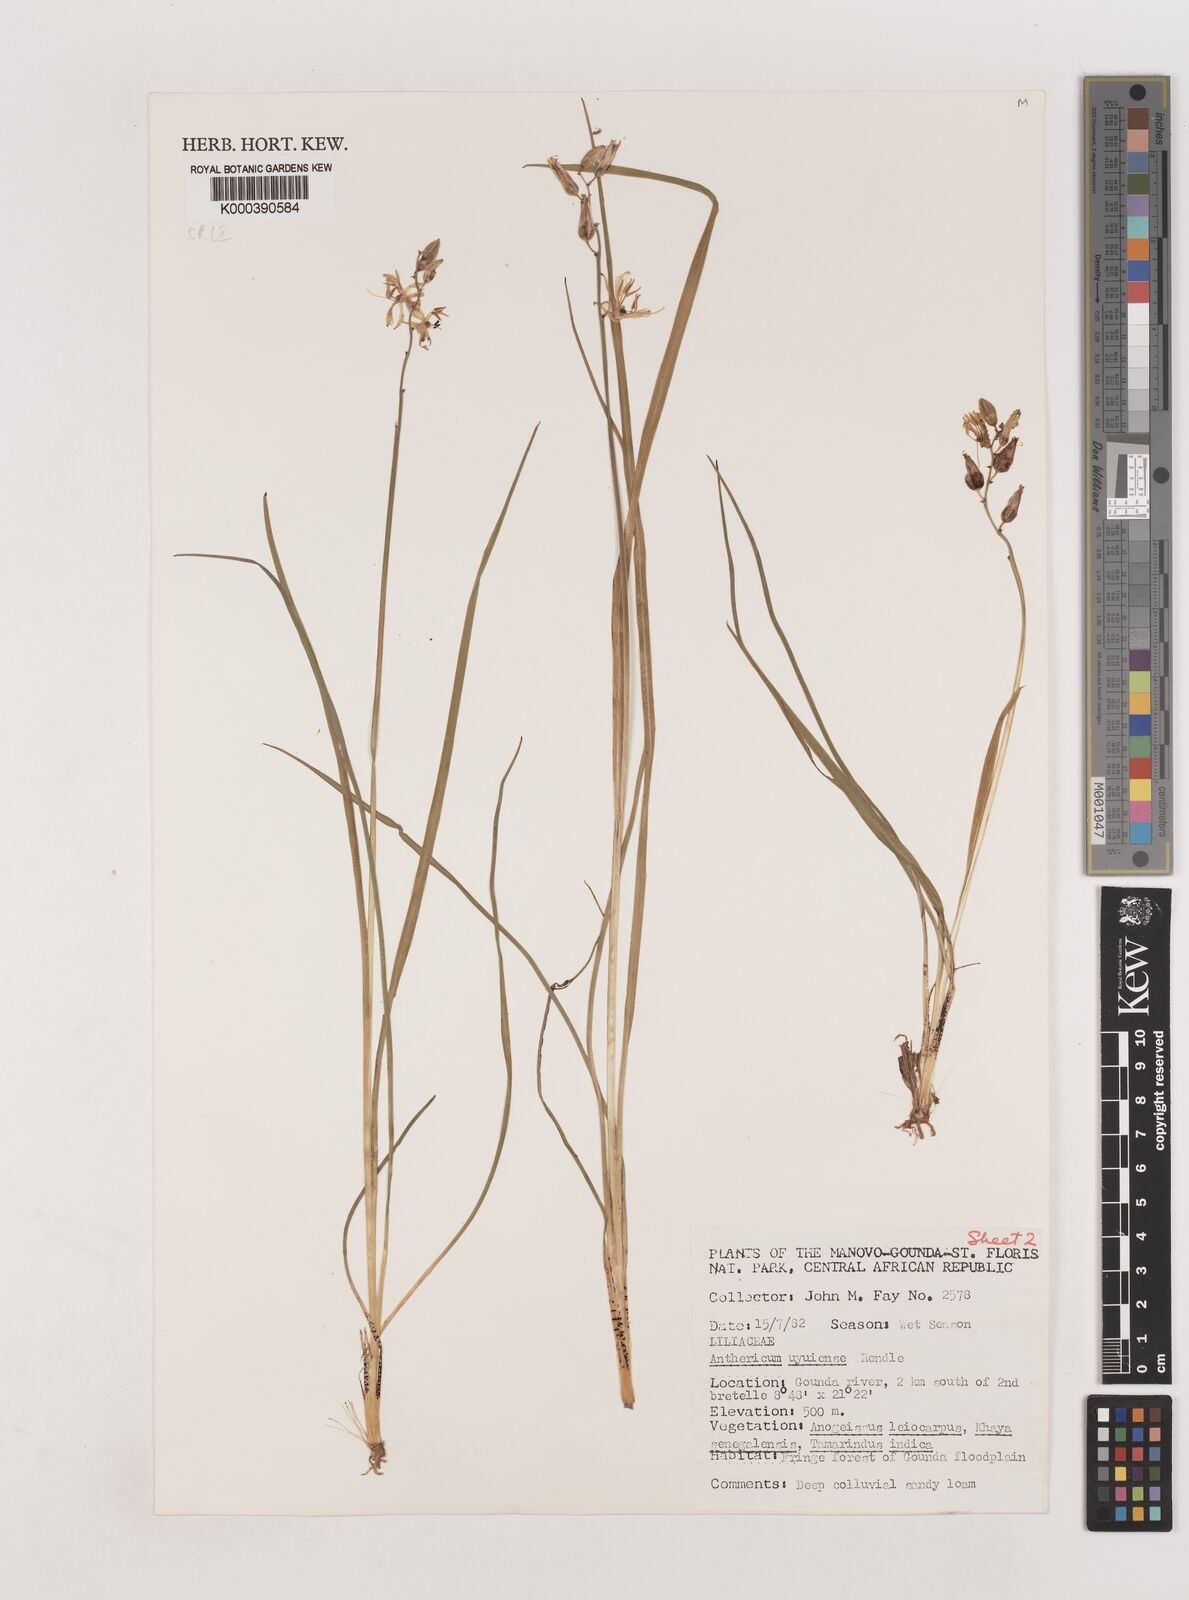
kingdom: Plantae
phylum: Tracheophyta
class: Liliopsida
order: Asparagales
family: Asparagaceae
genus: Chlorophytum
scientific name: Chlorophytum cameronii
